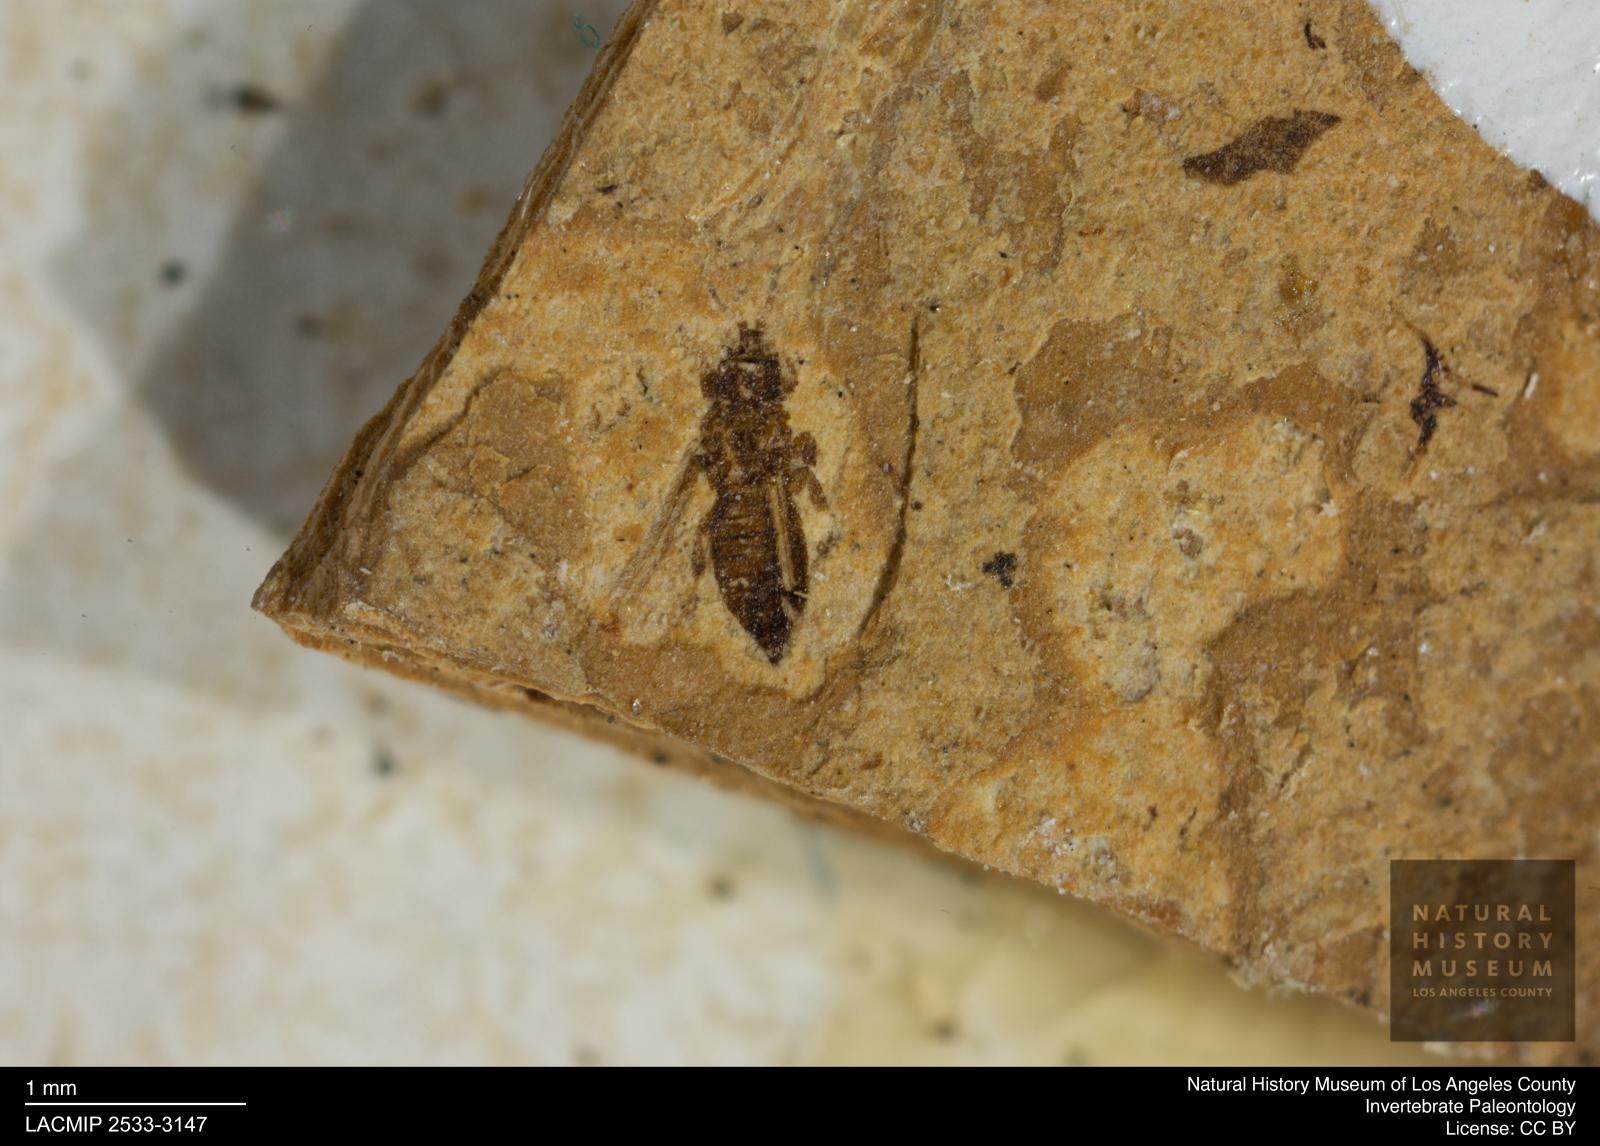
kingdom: Animalia
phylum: Arthropoda
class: Insecta
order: Thysanoptera
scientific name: Thysanoptera
